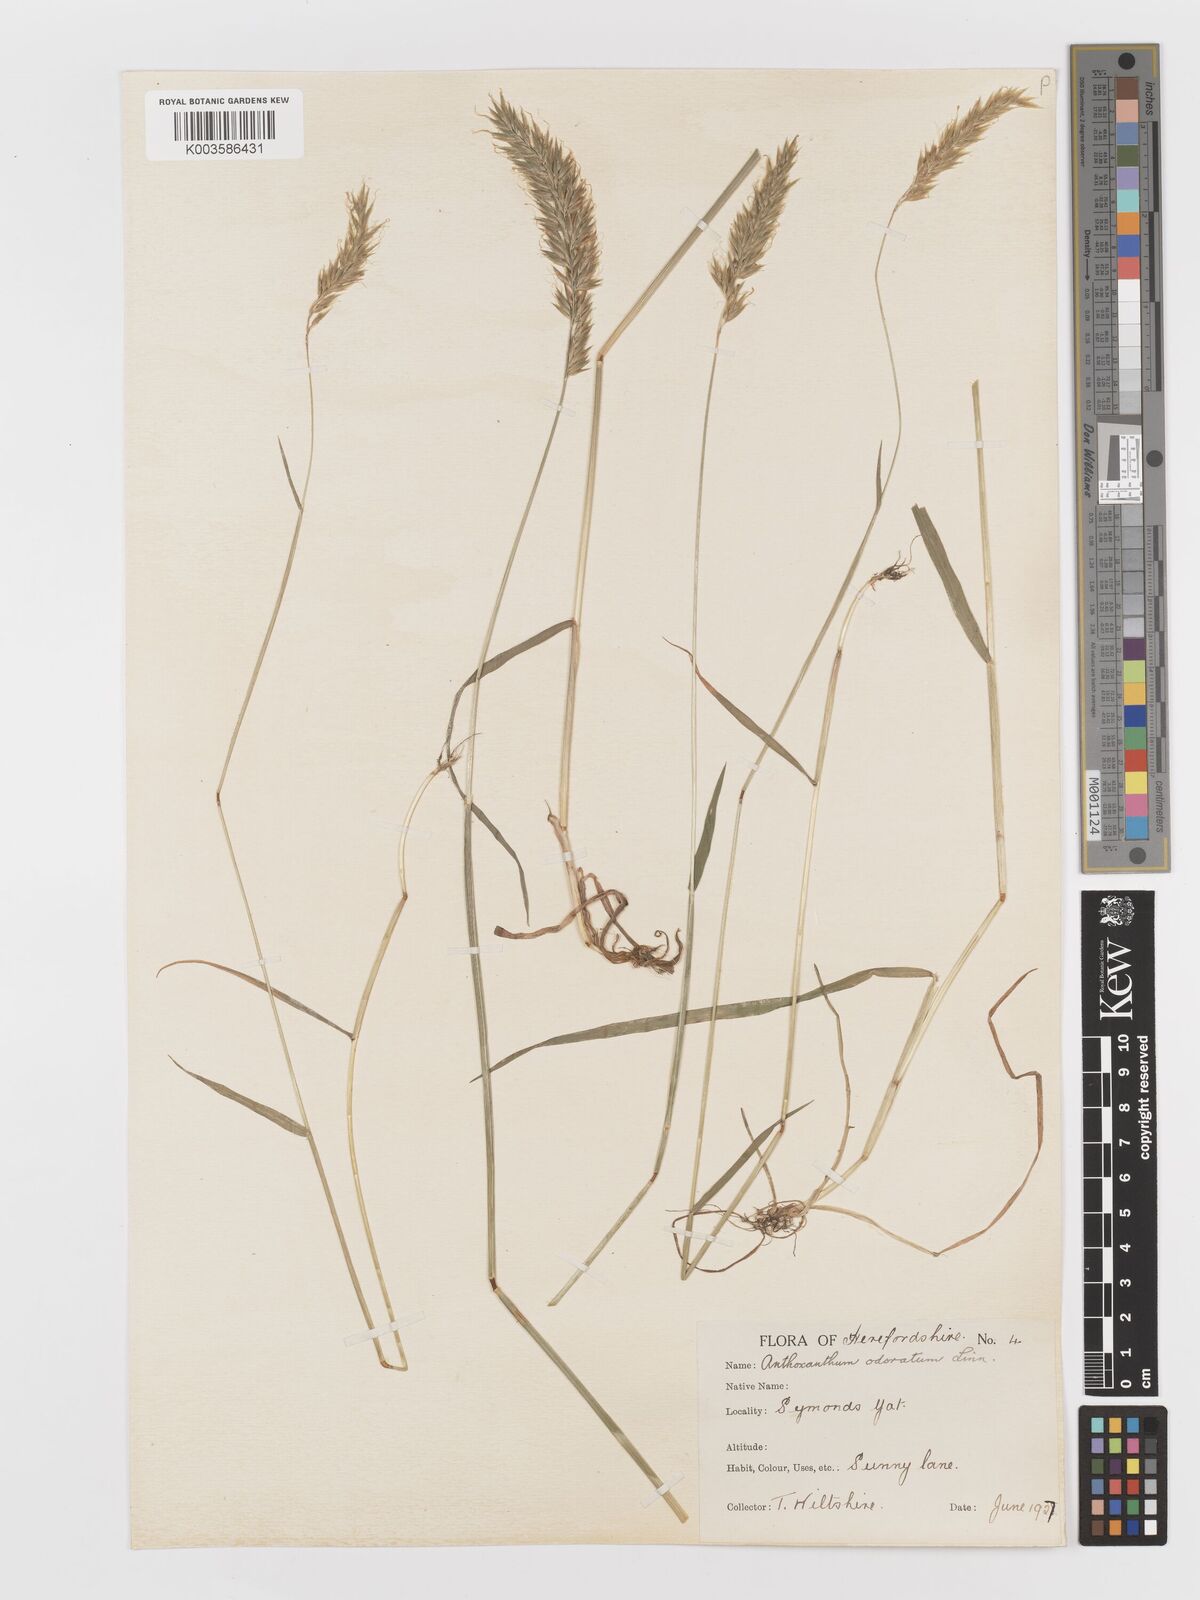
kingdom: Plantae
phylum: Tracheophyta
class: Liliopsida
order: Poales
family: Poaceae
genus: Anthoxanthum
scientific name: Anthoxanthum odoratum
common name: Sweet vernalgrass
